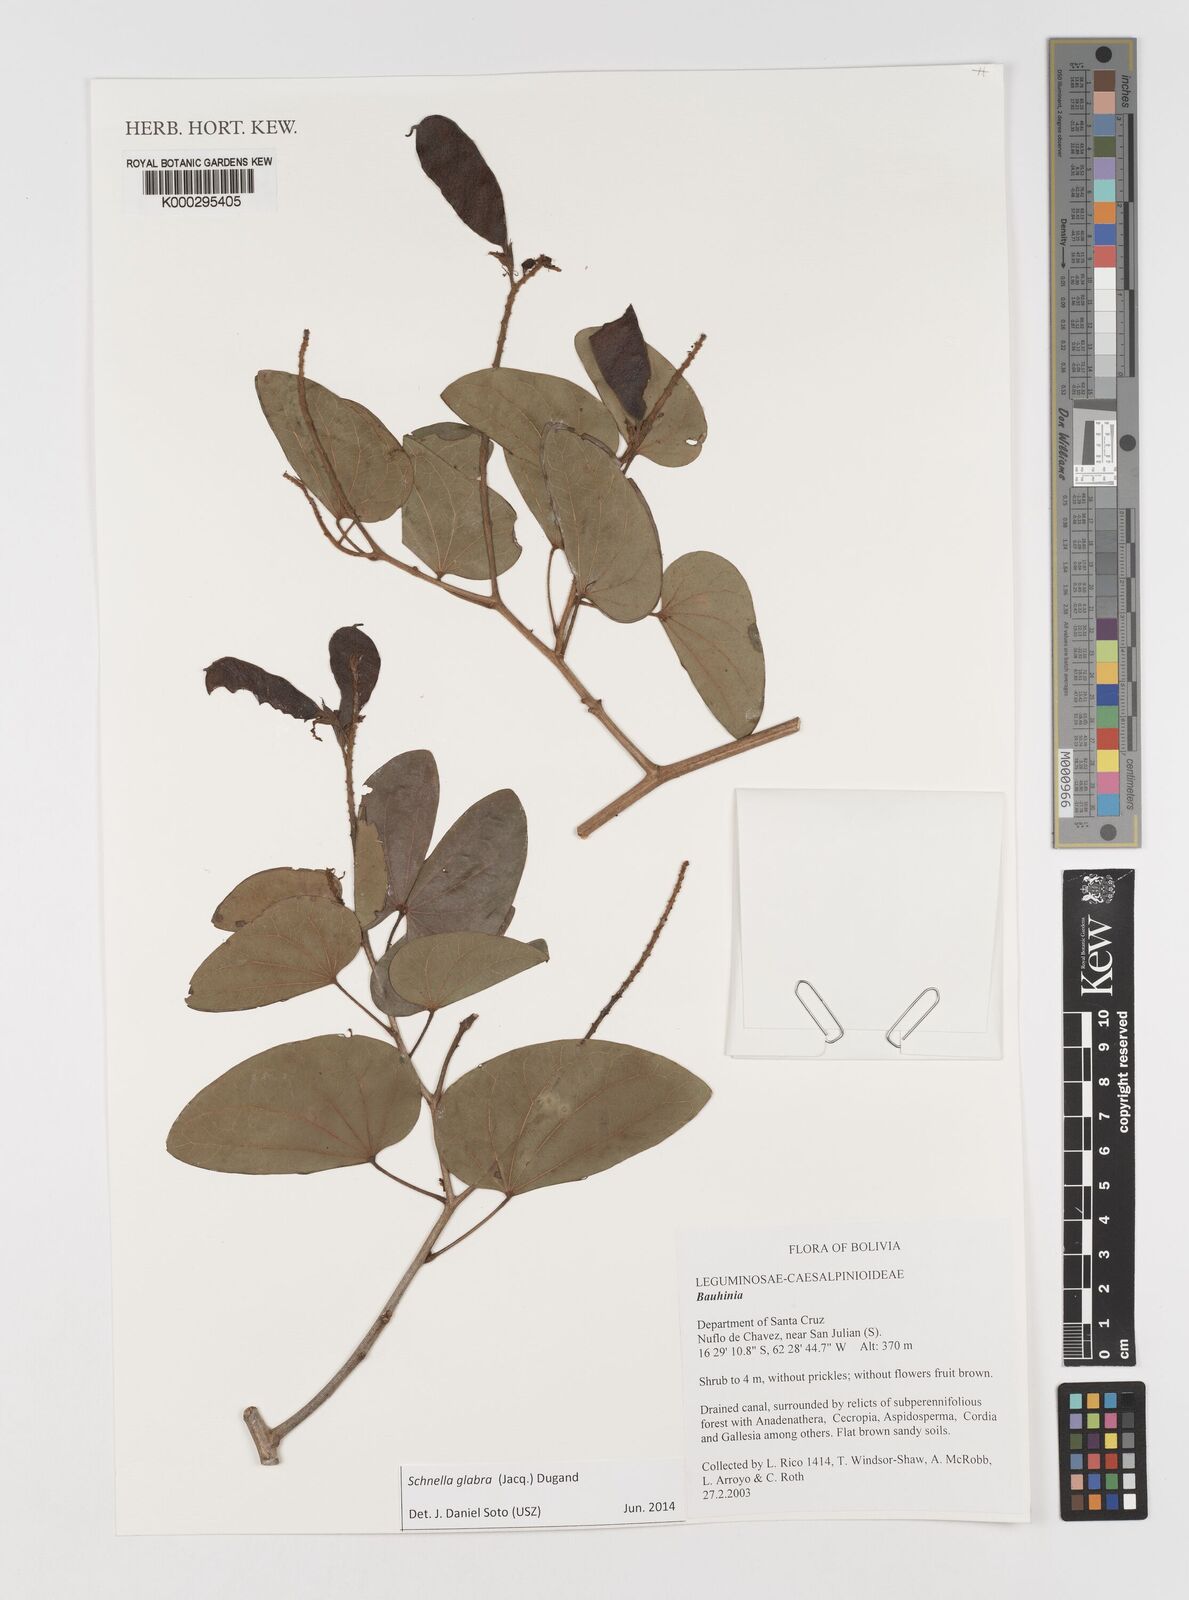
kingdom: Plantae
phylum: Tracheophyta
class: Magnoliopsida
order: Fabales
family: Fabaceae
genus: Bauhinia
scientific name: Bauhinia
